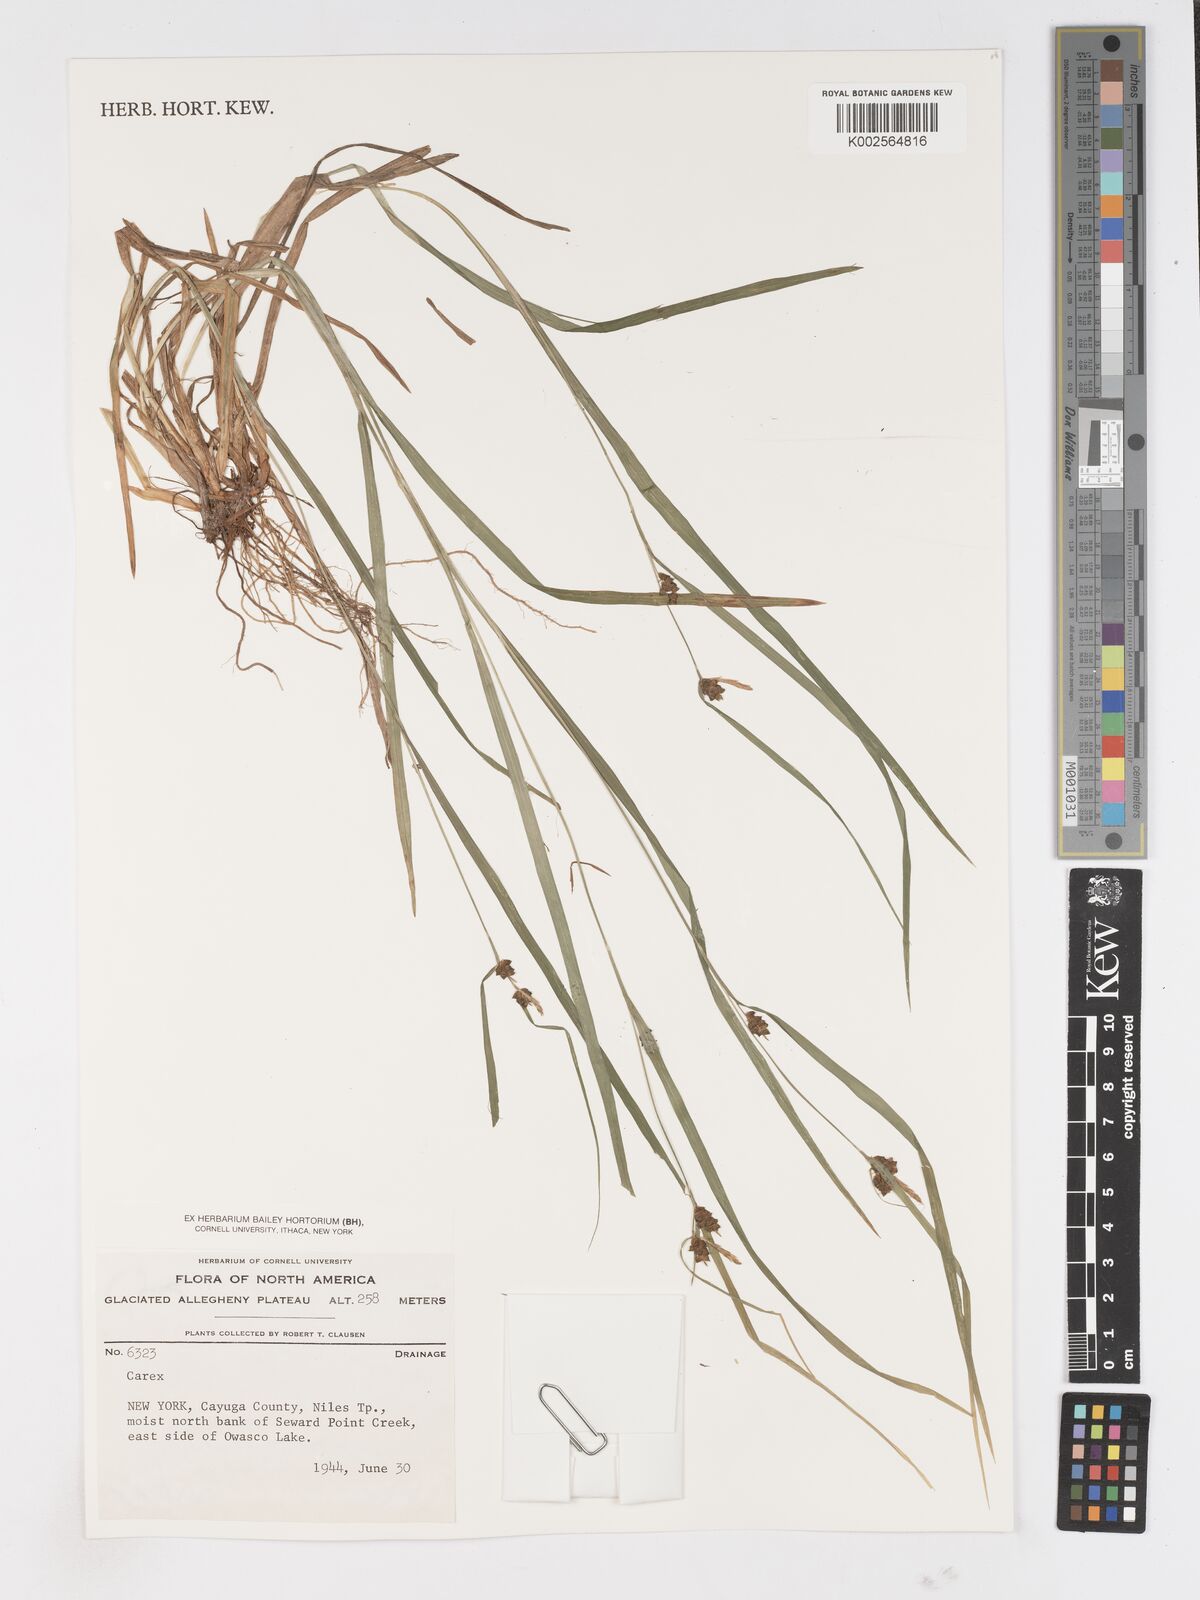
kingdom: Plantae
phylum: Tracheophyta
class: Liliopsida
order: Poales
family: Cyperaceae
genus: Carex
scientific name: Carex
